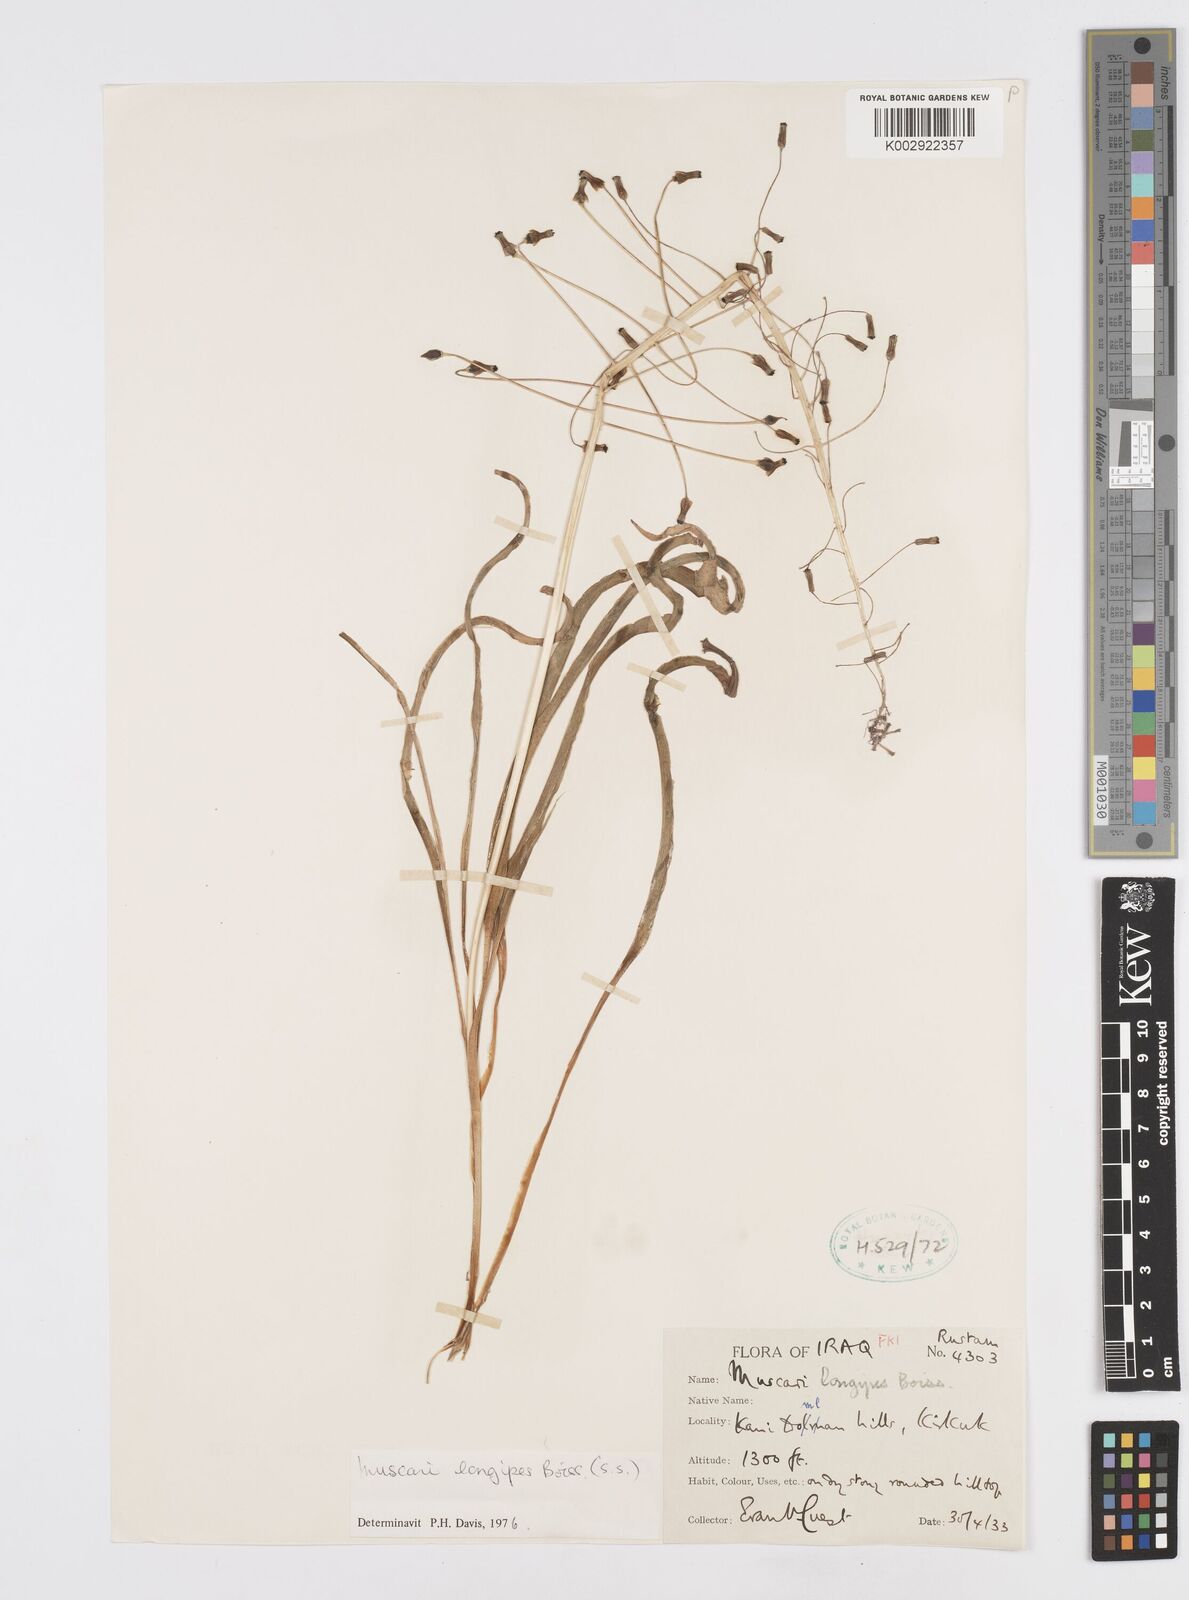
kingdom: Plantae
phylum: Tracheophyta
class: Liliopsida
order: Asparagales
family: Asparagaceae
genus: Muscari
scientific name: Muscari longipes
